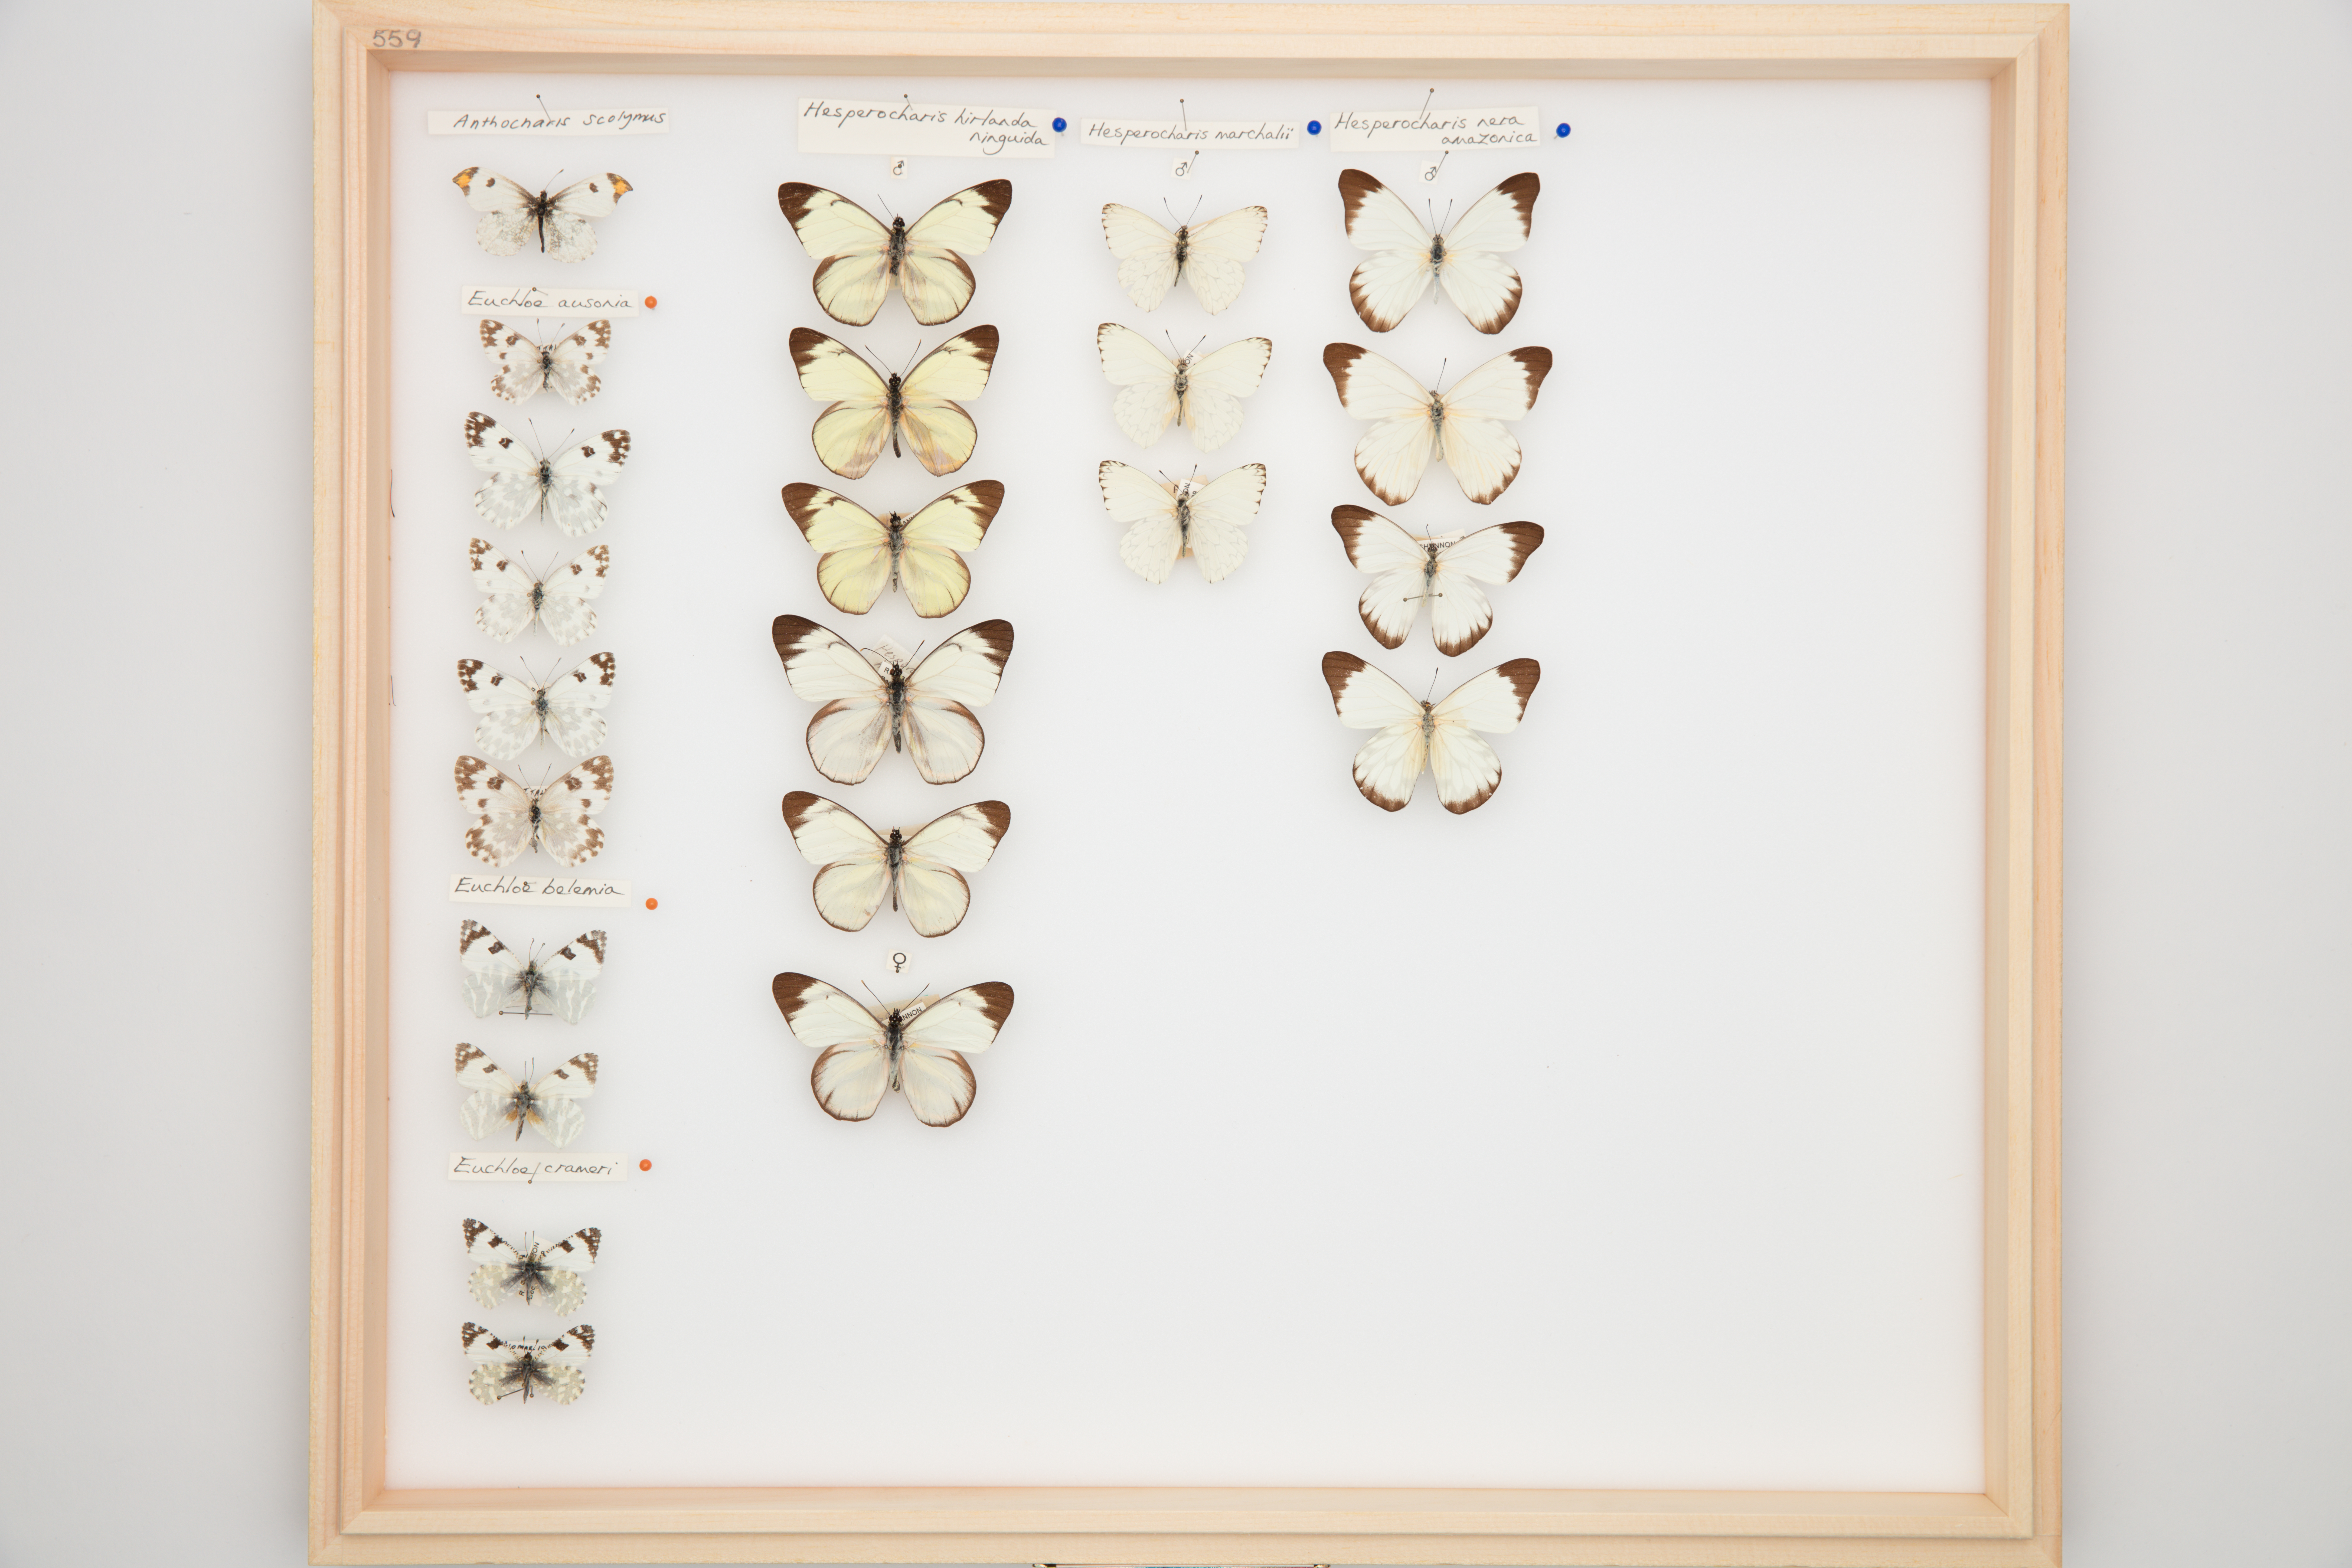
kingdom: Animalia
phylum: Arthropoda
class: Insecta
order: Lepidoptera
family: Pieridae
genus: Hesperocharis
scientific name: Hesperocharis
